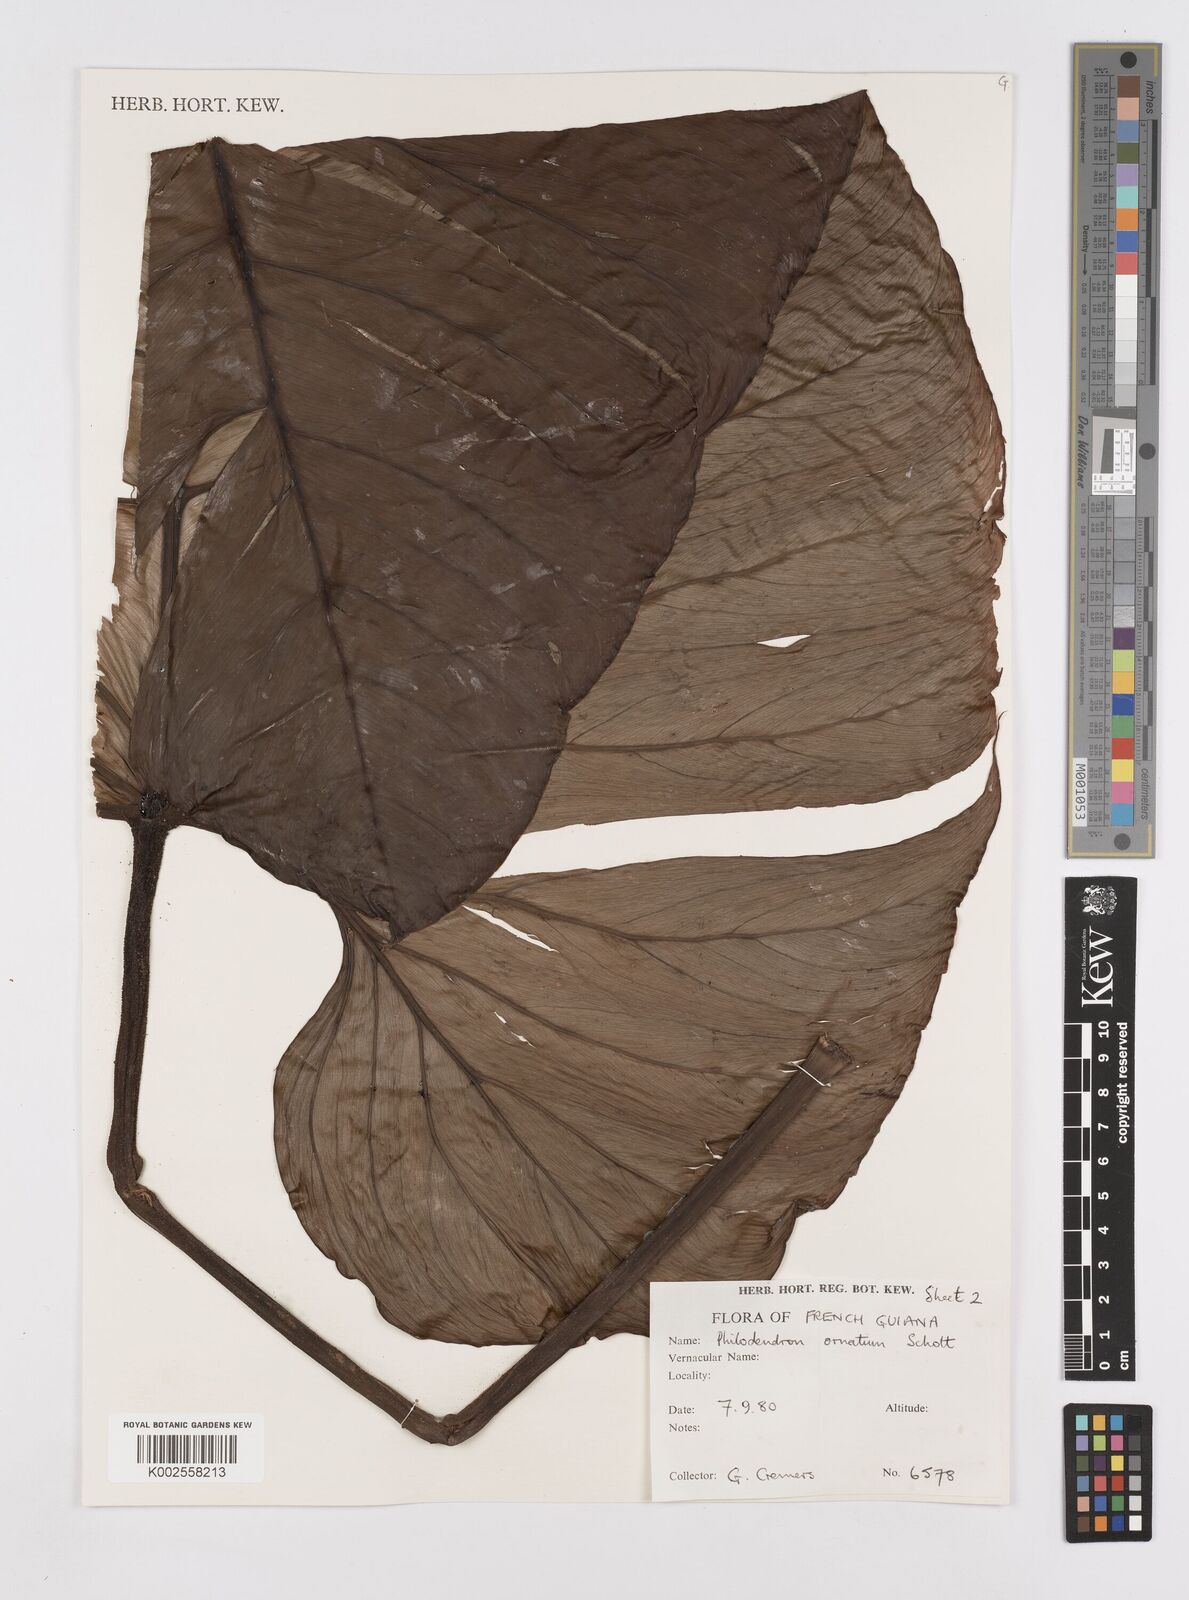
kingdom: Plantae
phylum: Tracheophyta
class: Liliopsida
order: Alismatales
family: Araceae
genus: Philodendron
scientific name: Philodendron ornatum
